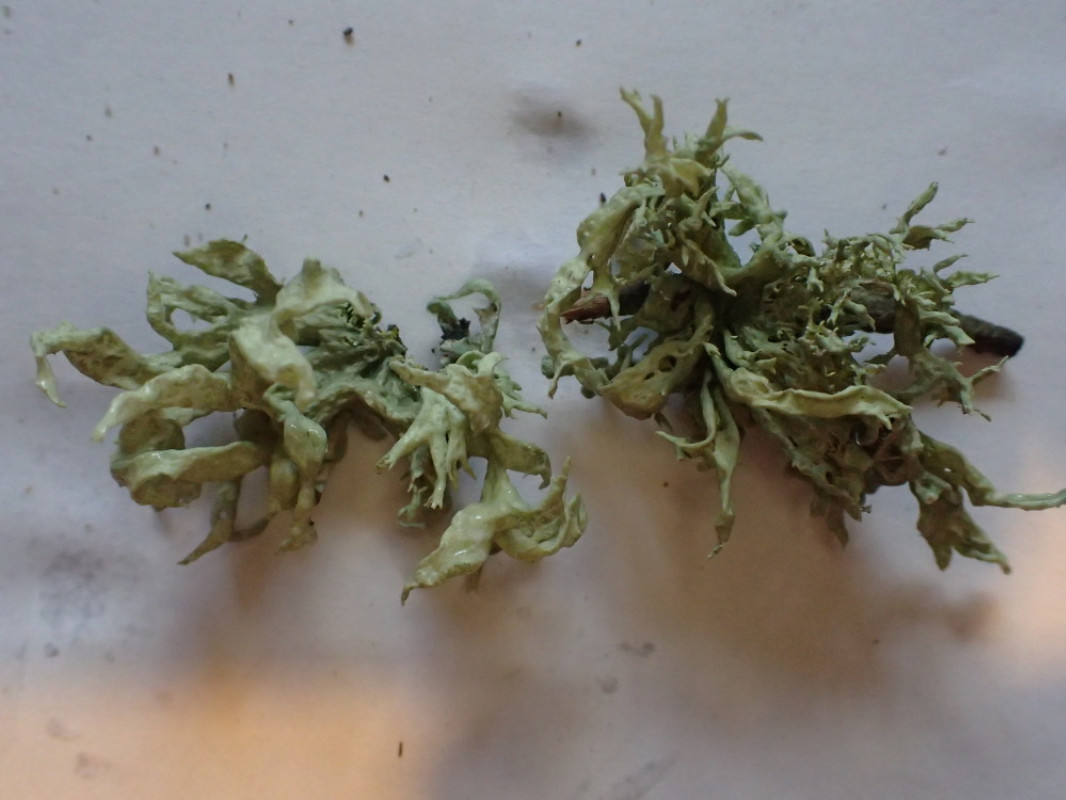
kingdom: Fungi
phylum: Ascomycota
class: Lecanoromycetes
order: Lecanorales
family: Ramalinaceae
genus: Ramalina
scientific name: Ramalina fastigiata
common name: tue-grenlav
